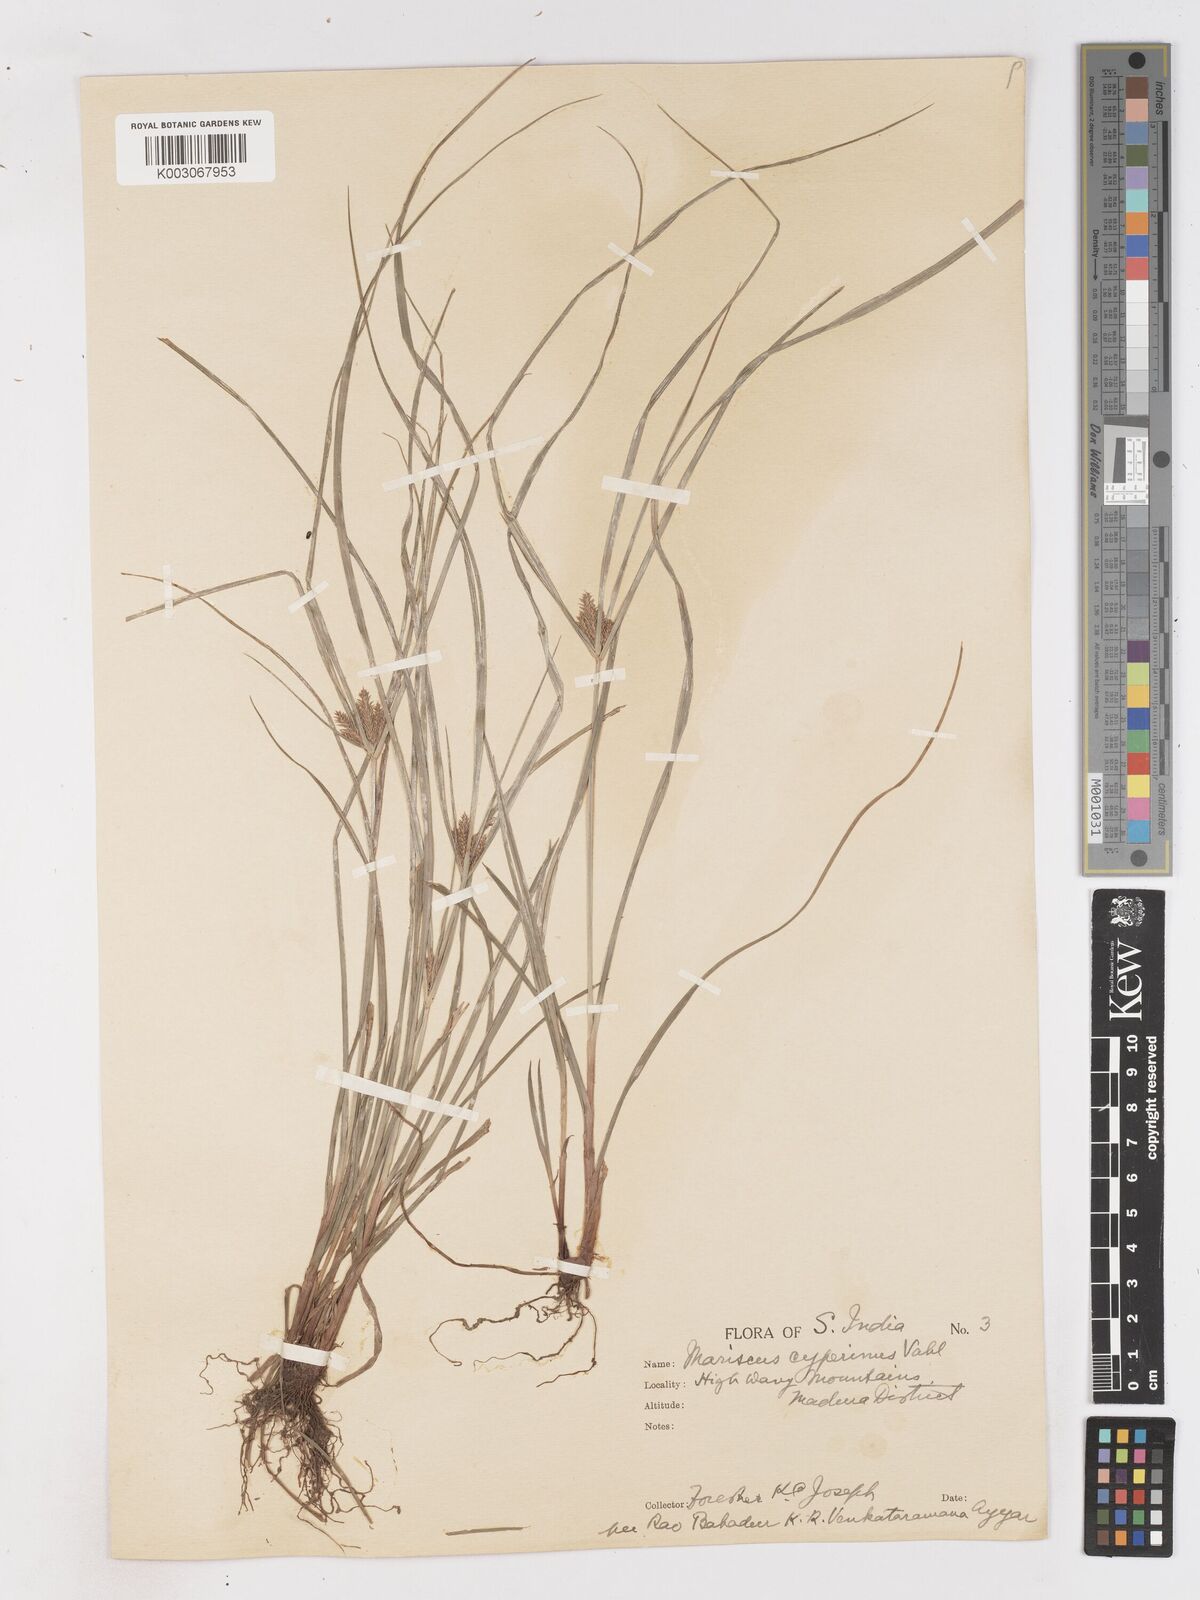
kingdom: Plantae
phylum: Tracheophyta
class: Liliopsida
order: Poales
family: Cyperaceae
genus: Cyperus
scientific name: Cyperus paniceus
